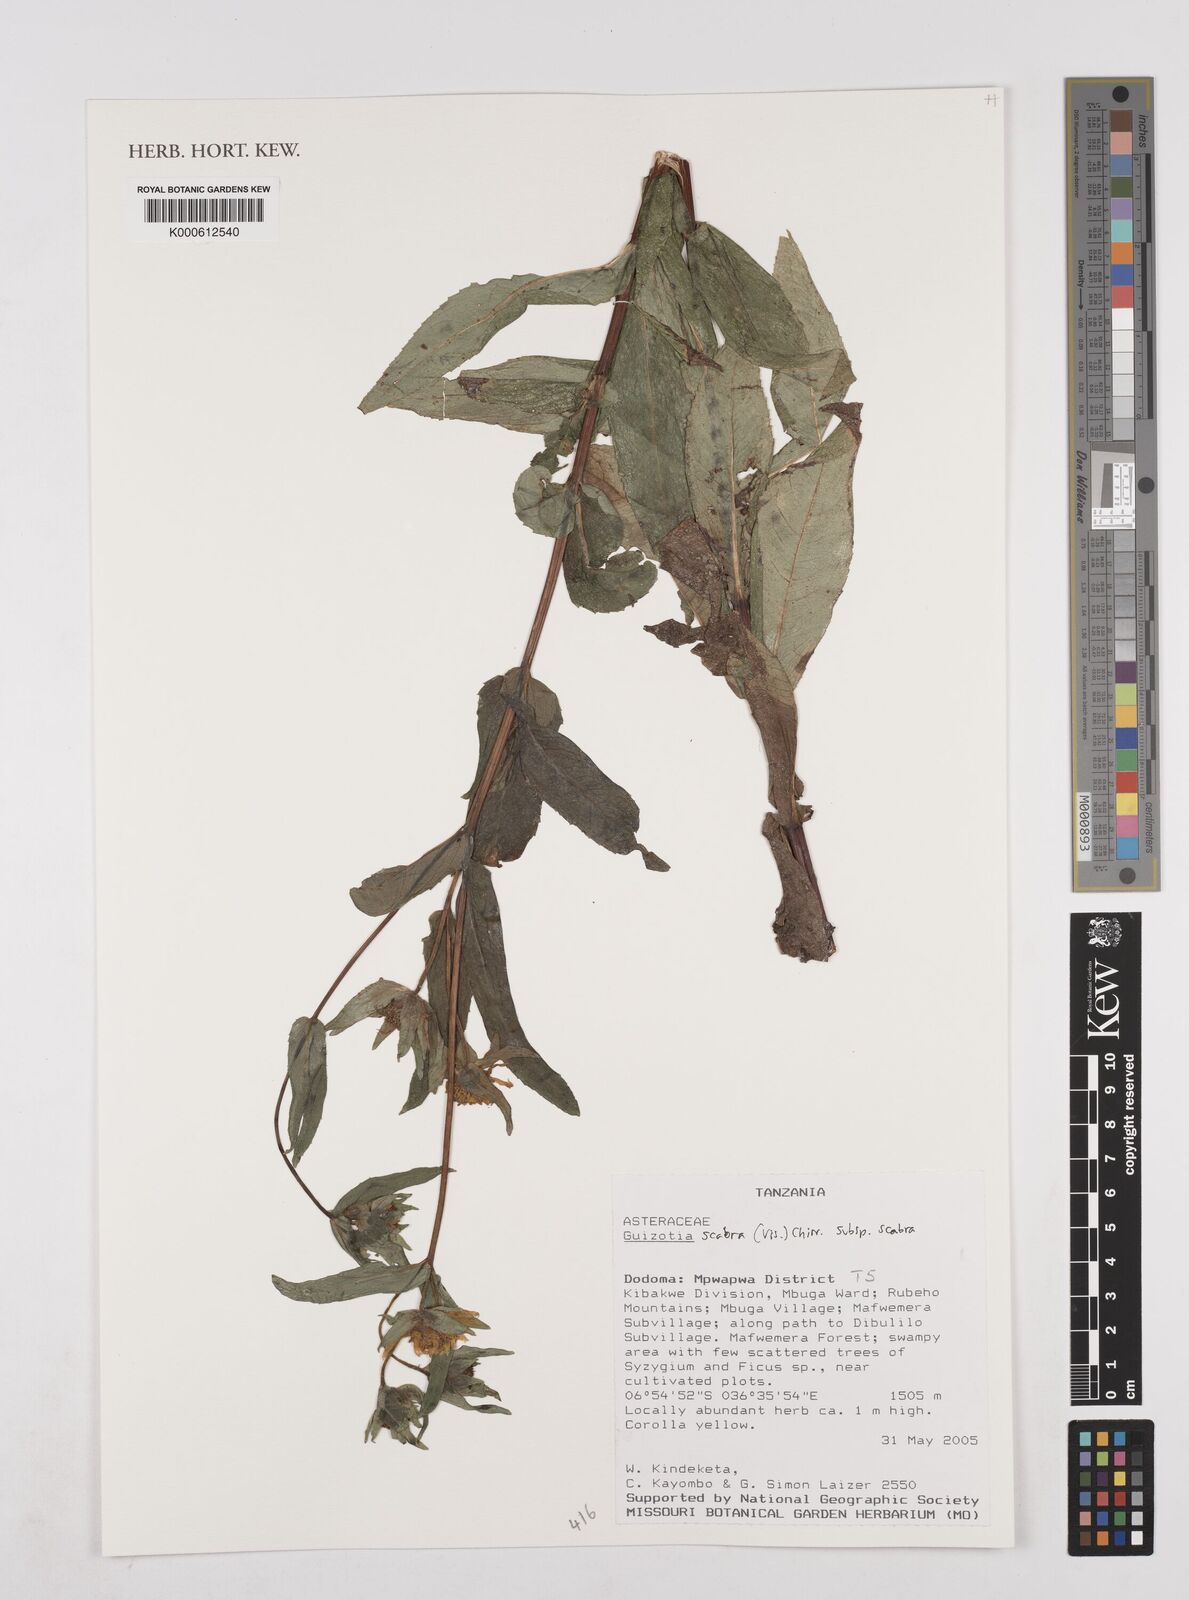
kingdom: Plantae
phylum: Tracheophyta
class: Magnoliopsida
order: Asterales
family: Asteraceae
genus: Guizotia
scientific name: Guizotia scabra
